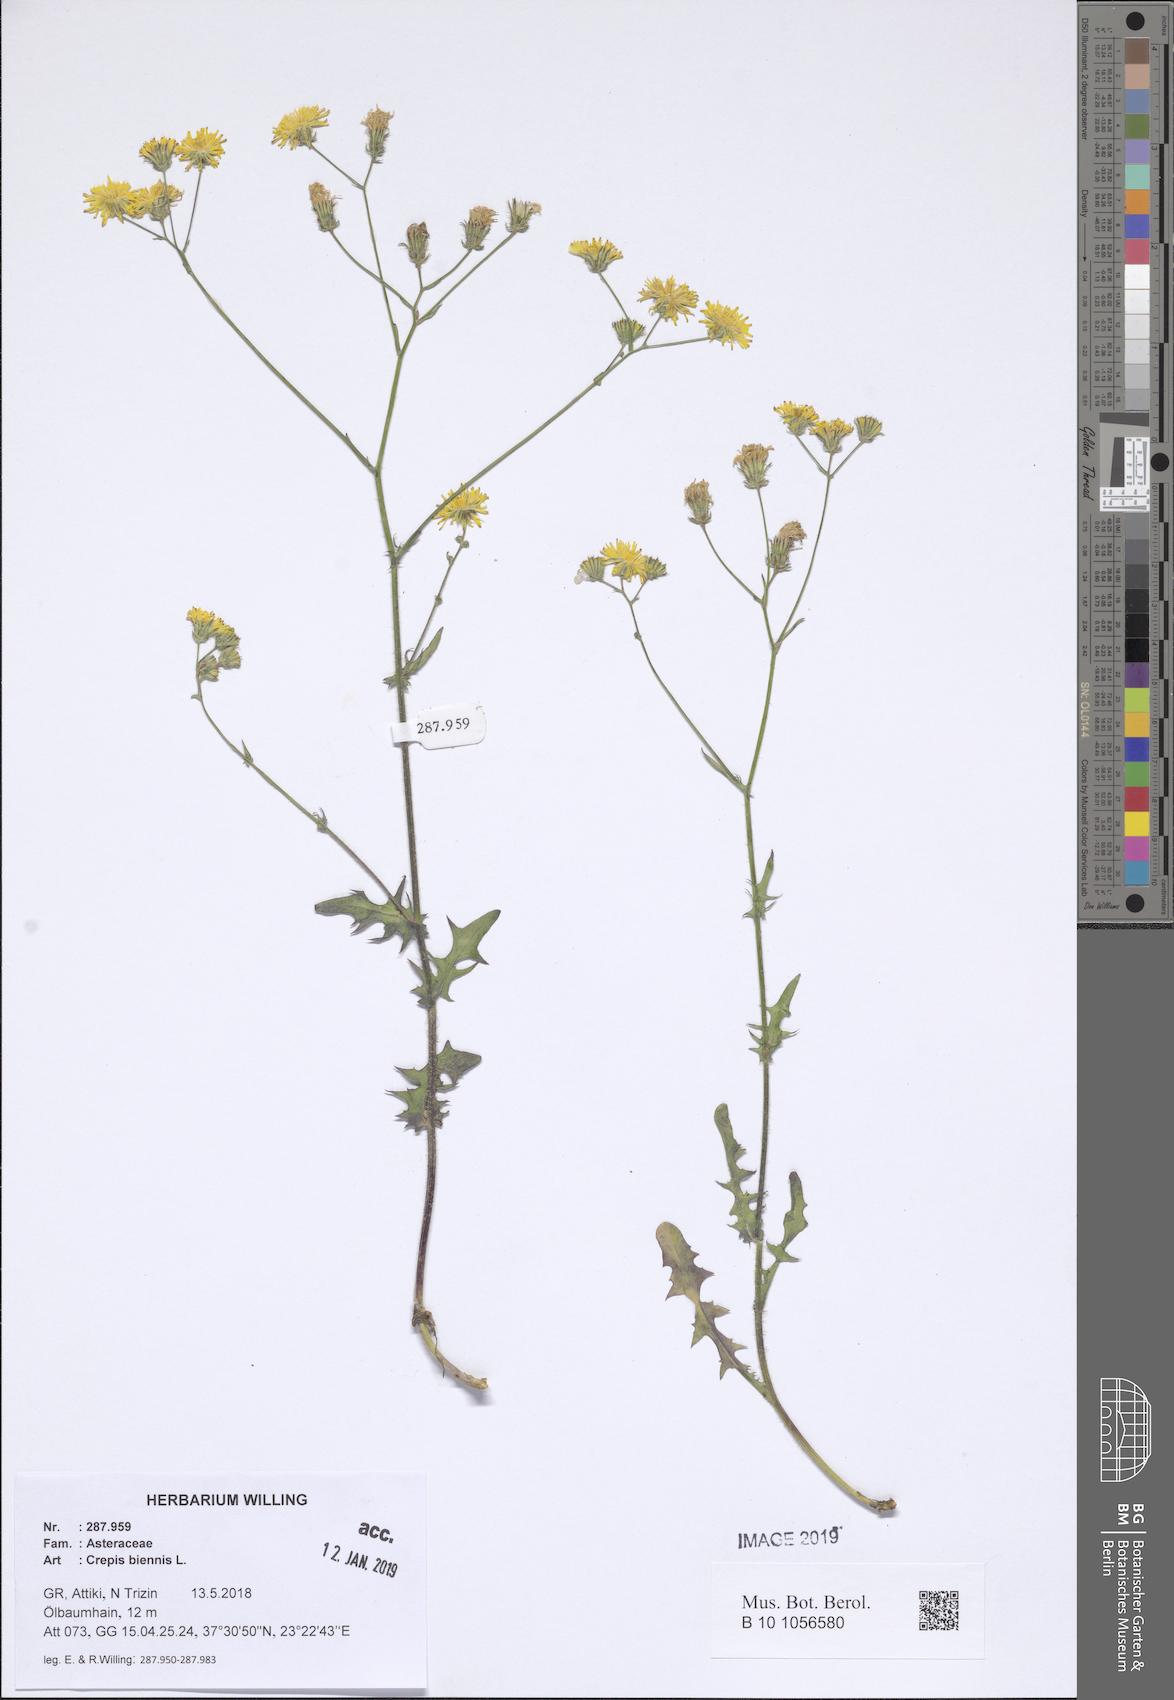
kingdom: Plantae
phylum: Tracheophyta
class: Magnoliopsida
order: Asterales
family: Asteraceae
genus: Crepis
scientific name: Crepis biennis
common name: Rough hawk's-beard
